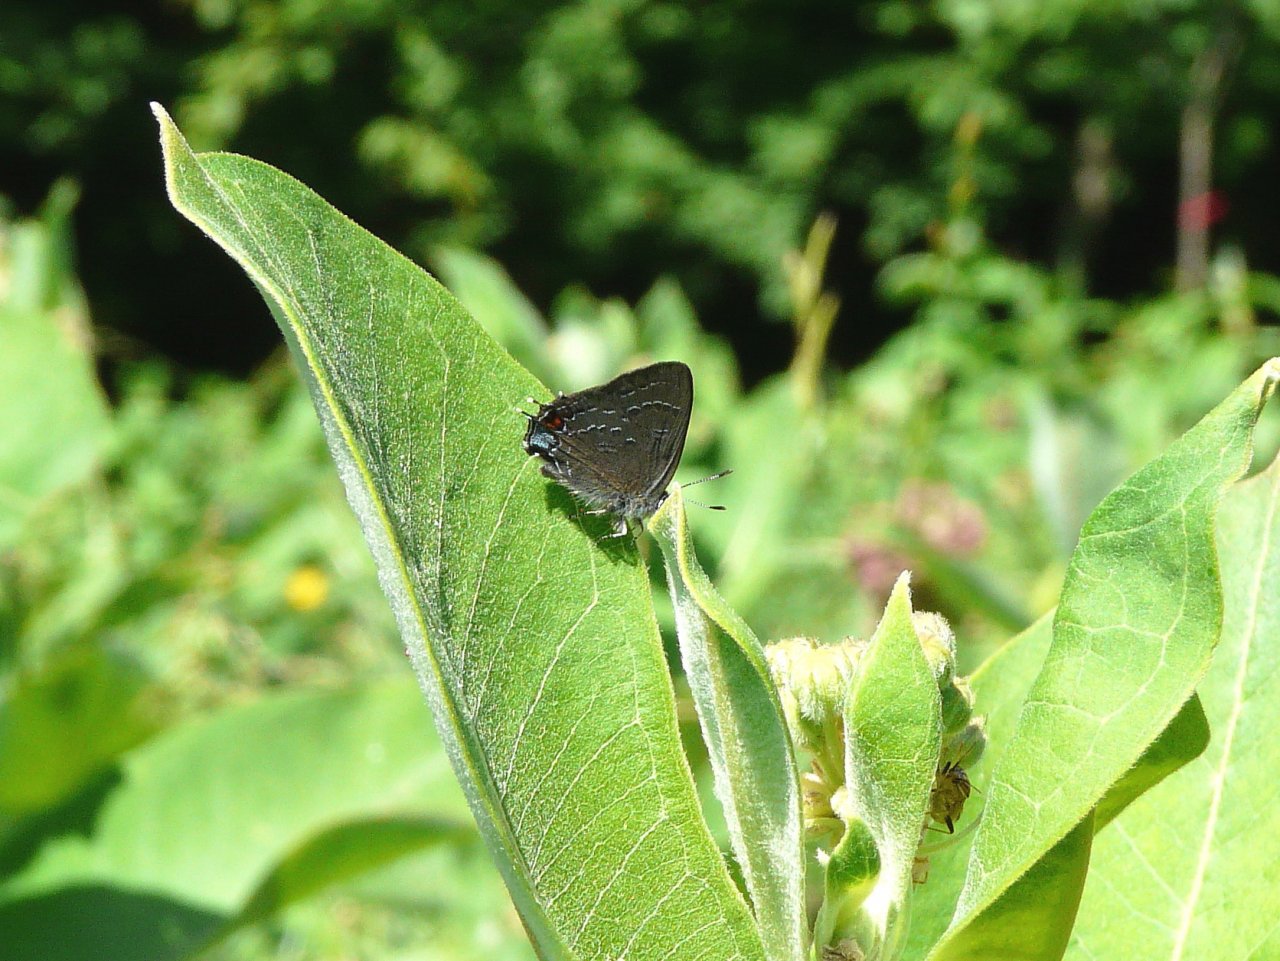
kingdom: Animalia
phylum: Arthropoda
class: Insecta
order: Lepidoptera
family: Lycaenidae
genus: Satyrium
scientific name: Satyrium calanus
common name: Banded Hairstreak
